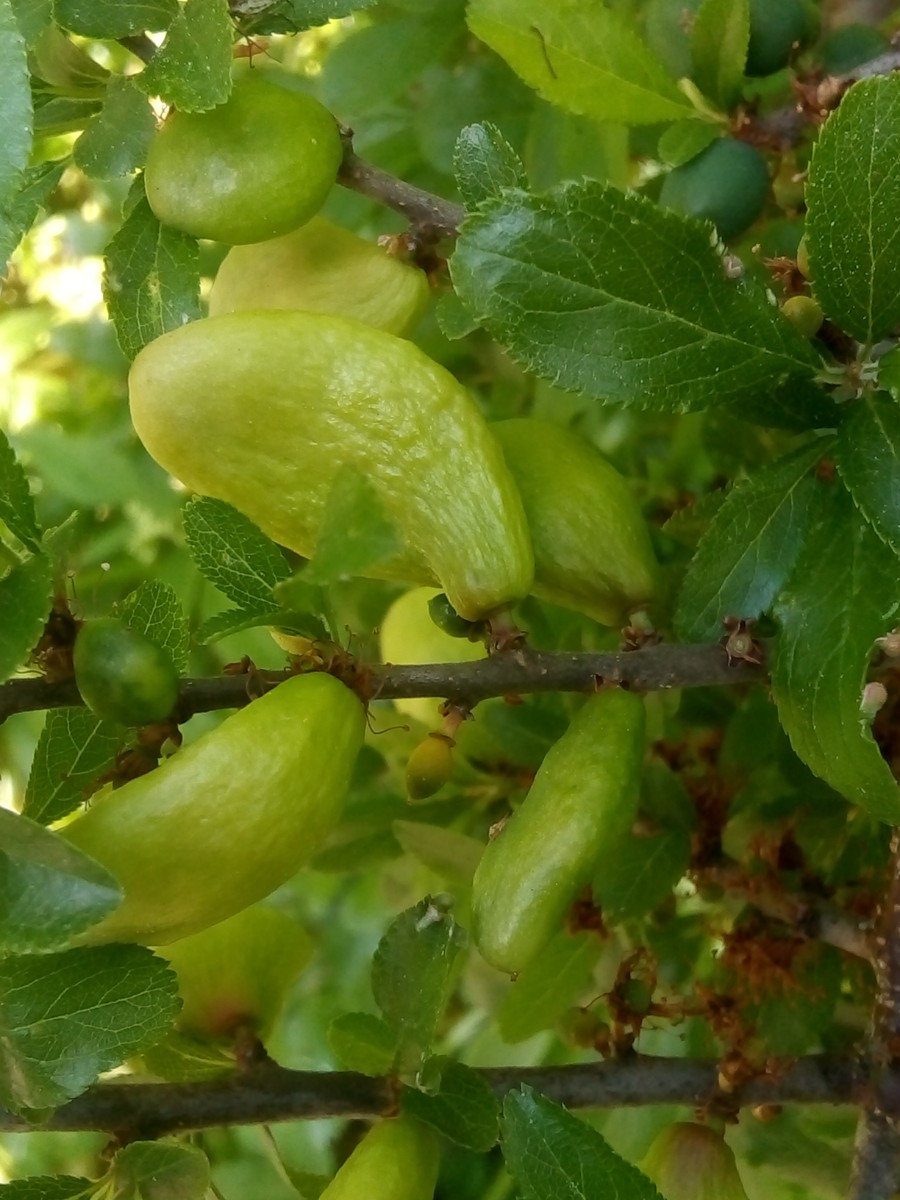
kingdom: Fungi
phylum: Ascomycota
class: Taphrinomycetes
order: Taphrinales
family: Taphrinaceae
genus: Taphrina
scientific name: Taphrina pruni
